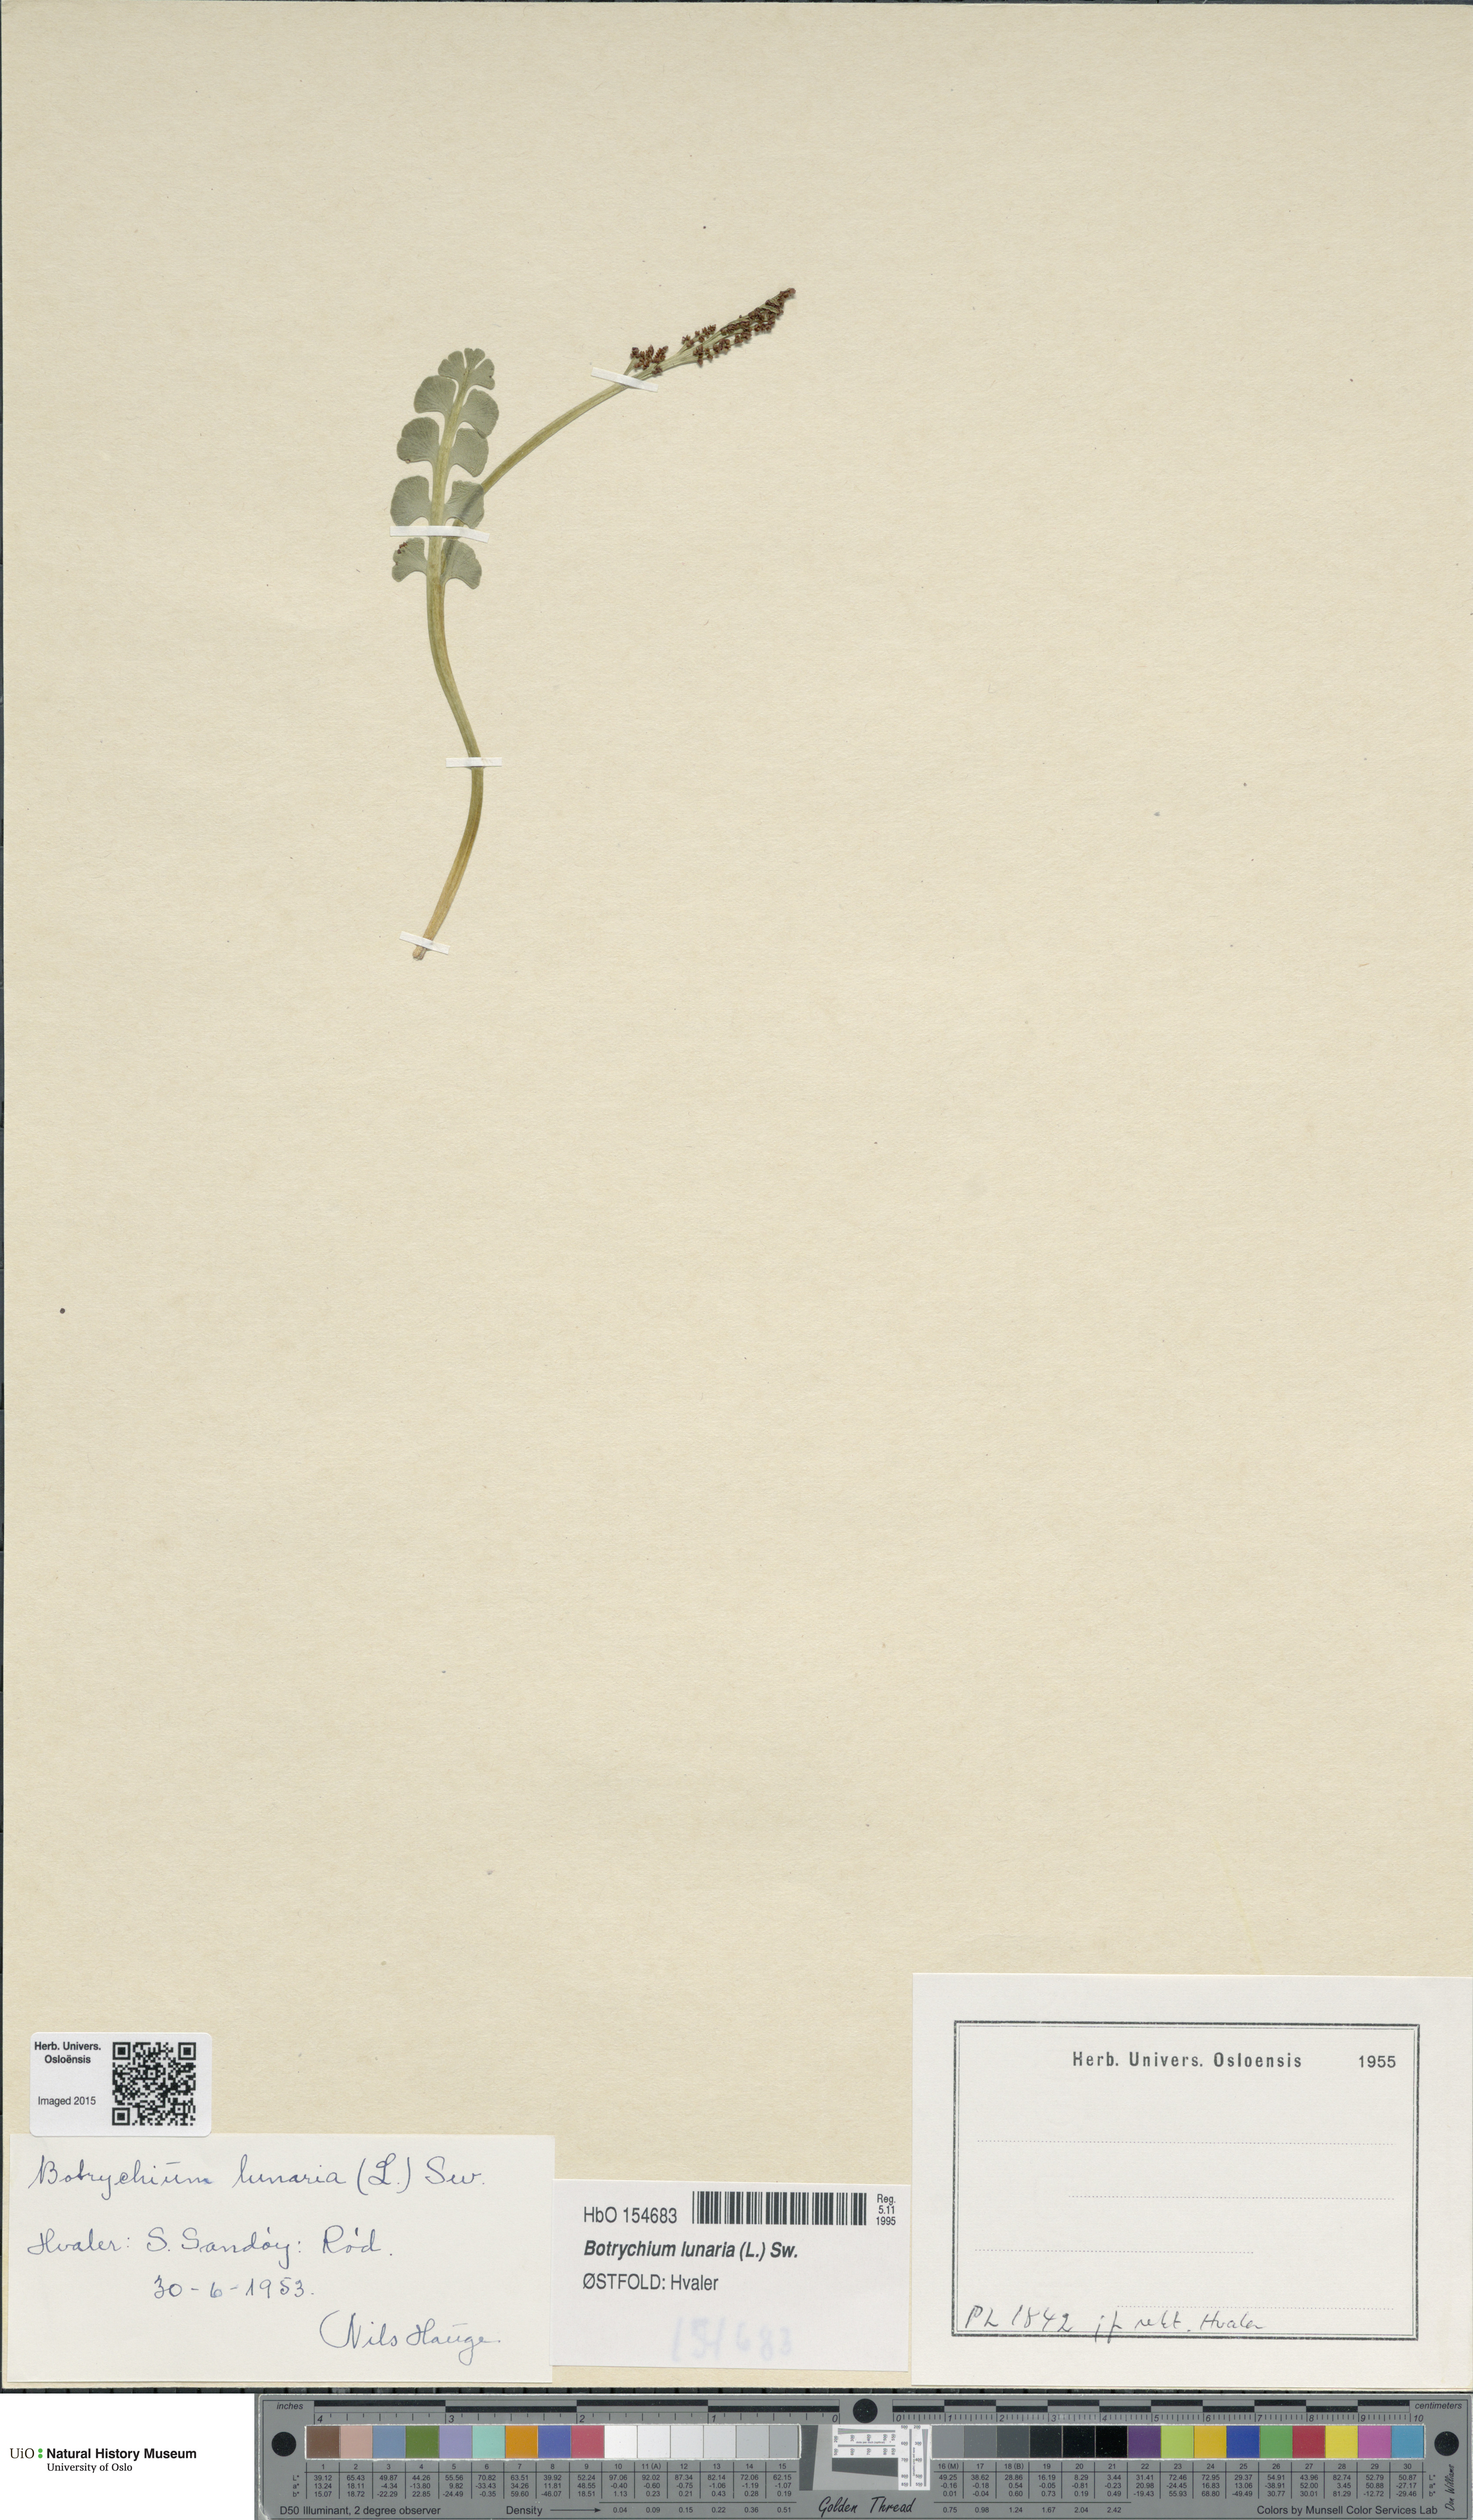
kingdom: Plantae
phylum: Tracheophyta
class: Polypodiopsida
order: Ophioglossales
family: Ophioglossaceae
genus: Botrychium
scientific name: Botrychium lunaria
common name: Moonwort
